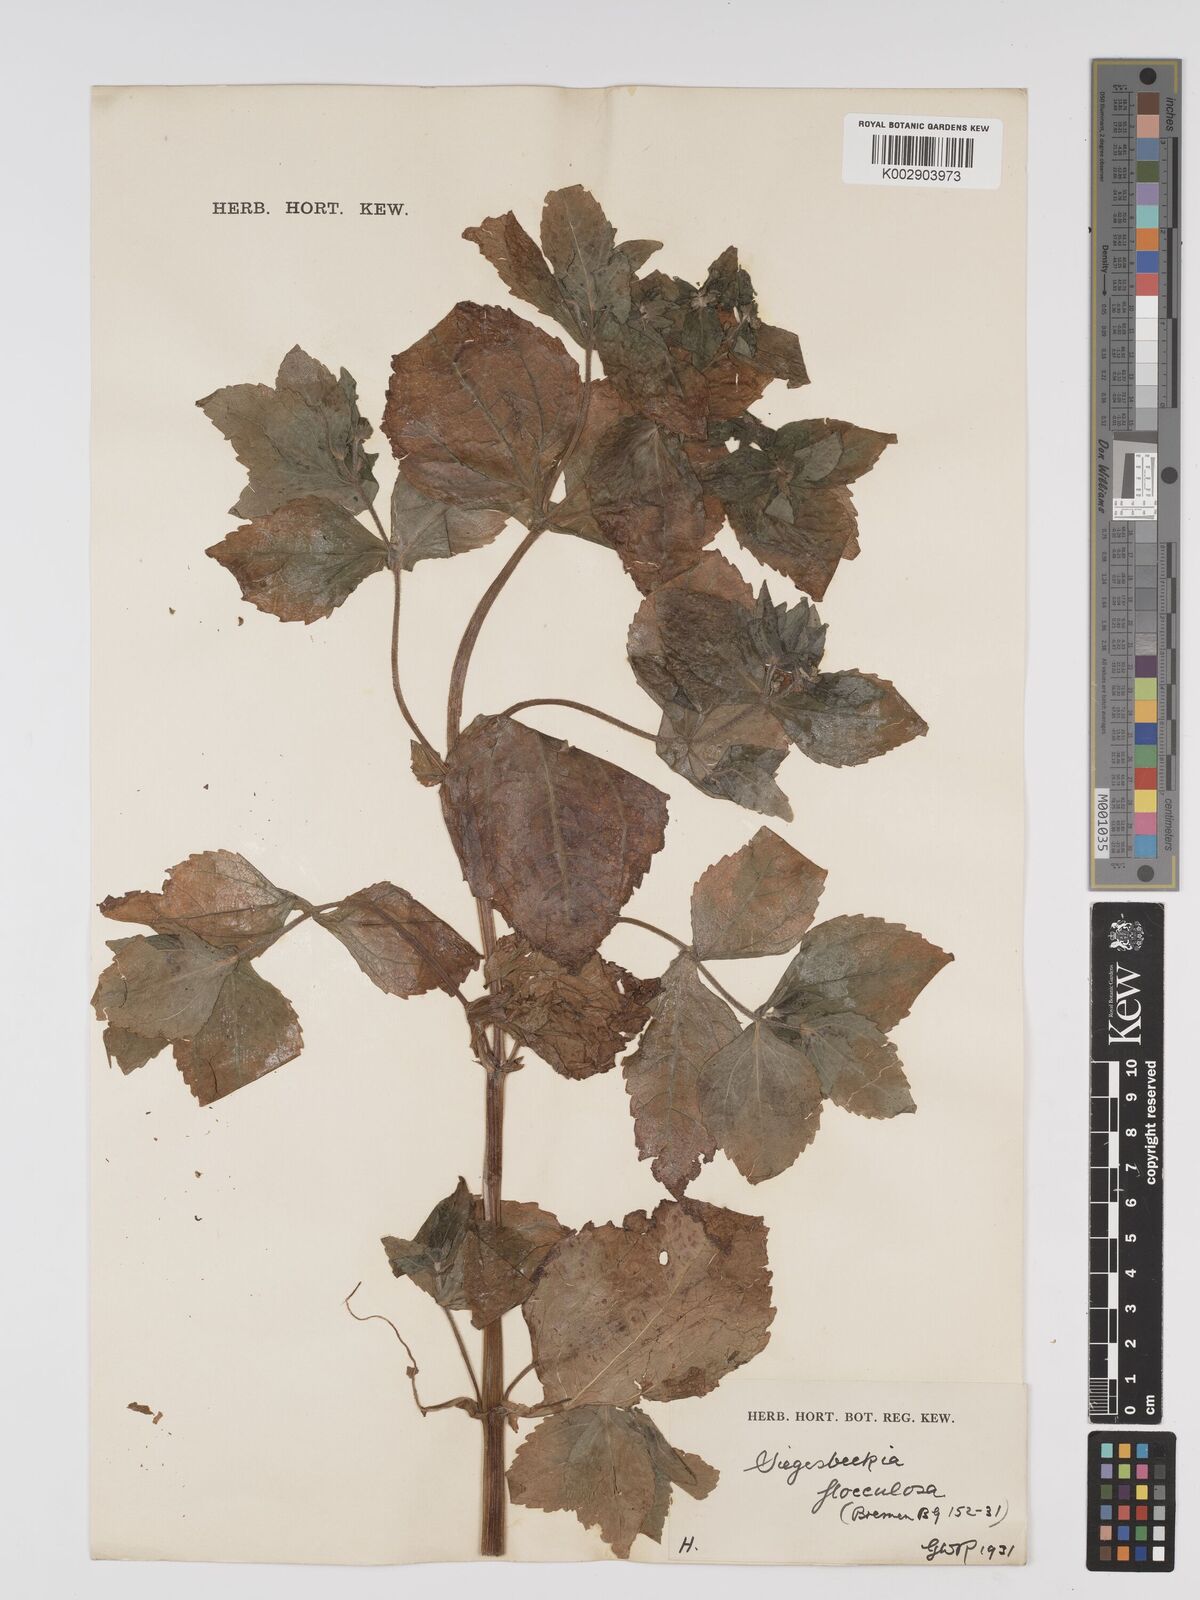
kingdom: Plantae
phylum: Tracheophyta
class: Magnoliopsida
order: Asterales
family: Asteraceae
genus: Sigesbeckia
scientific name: Sigesbeckia flosculosa
